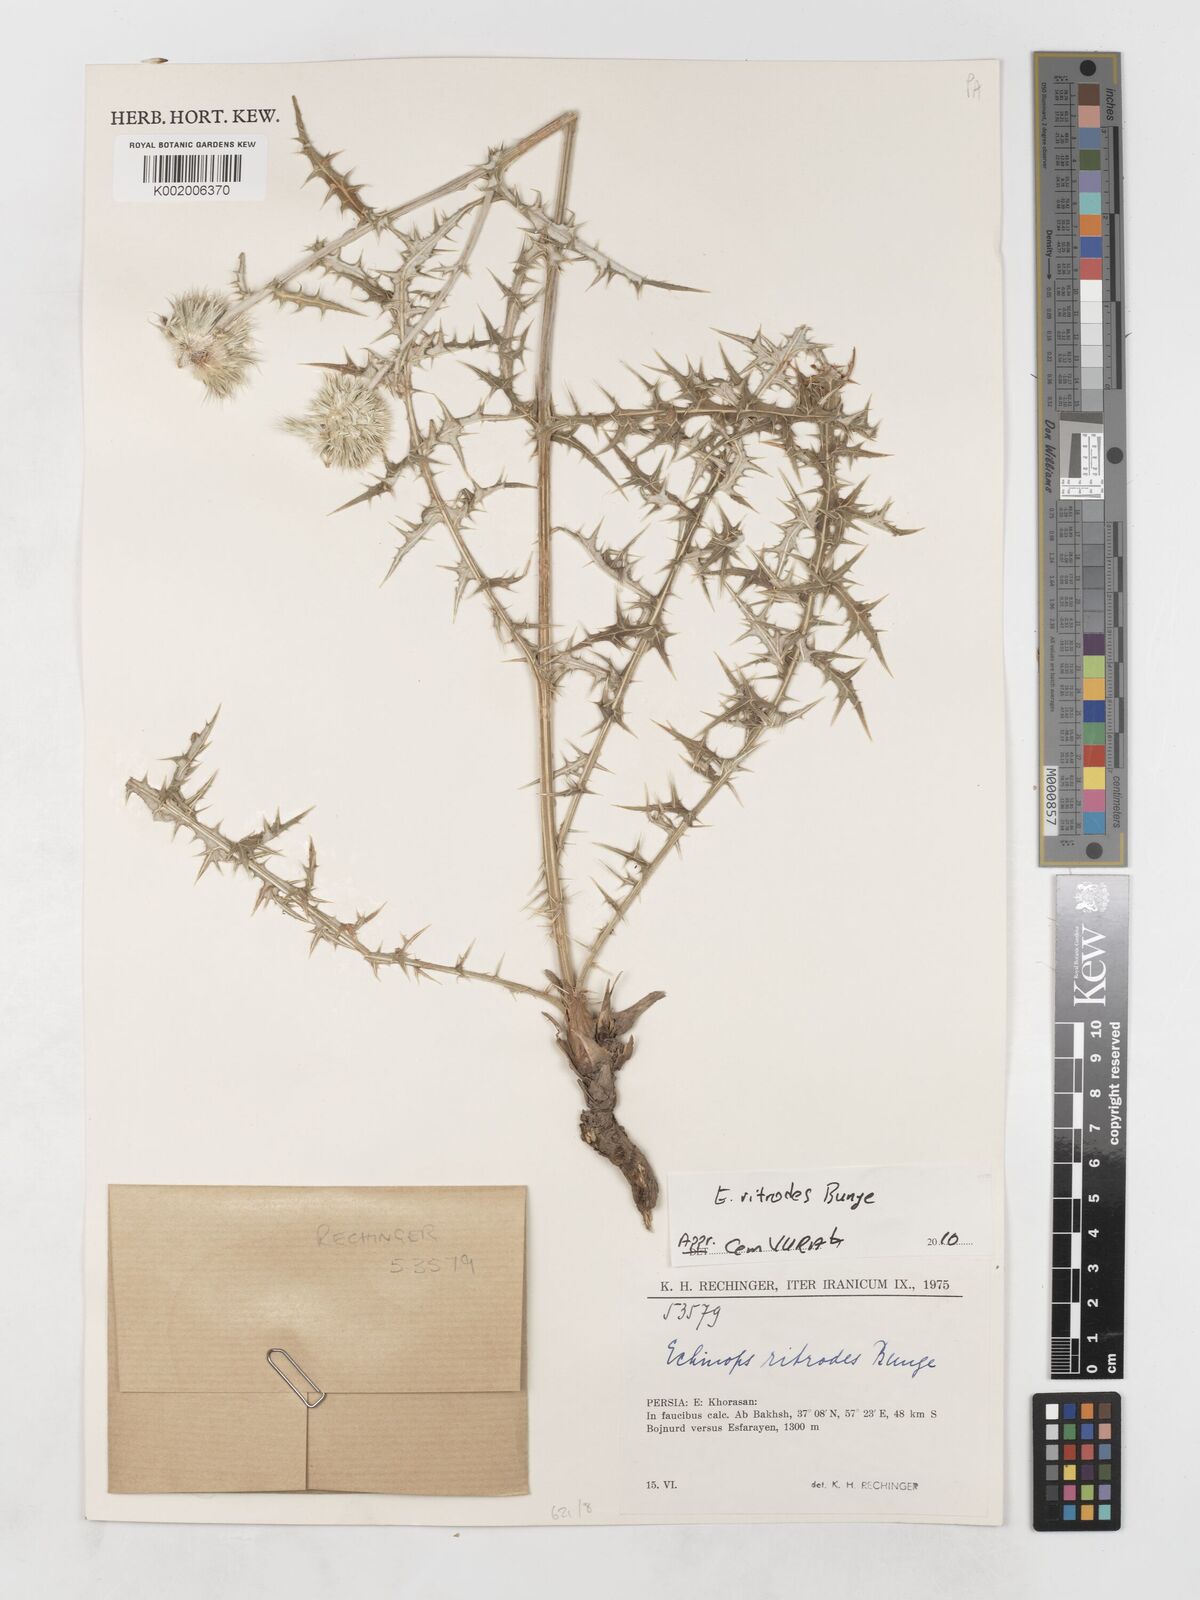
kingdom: Plantae
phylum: Tracheophyta
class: Magnoliopsida
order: Asterales
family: Asteraceae
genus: Echinops
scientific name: Echinops ritrodes
